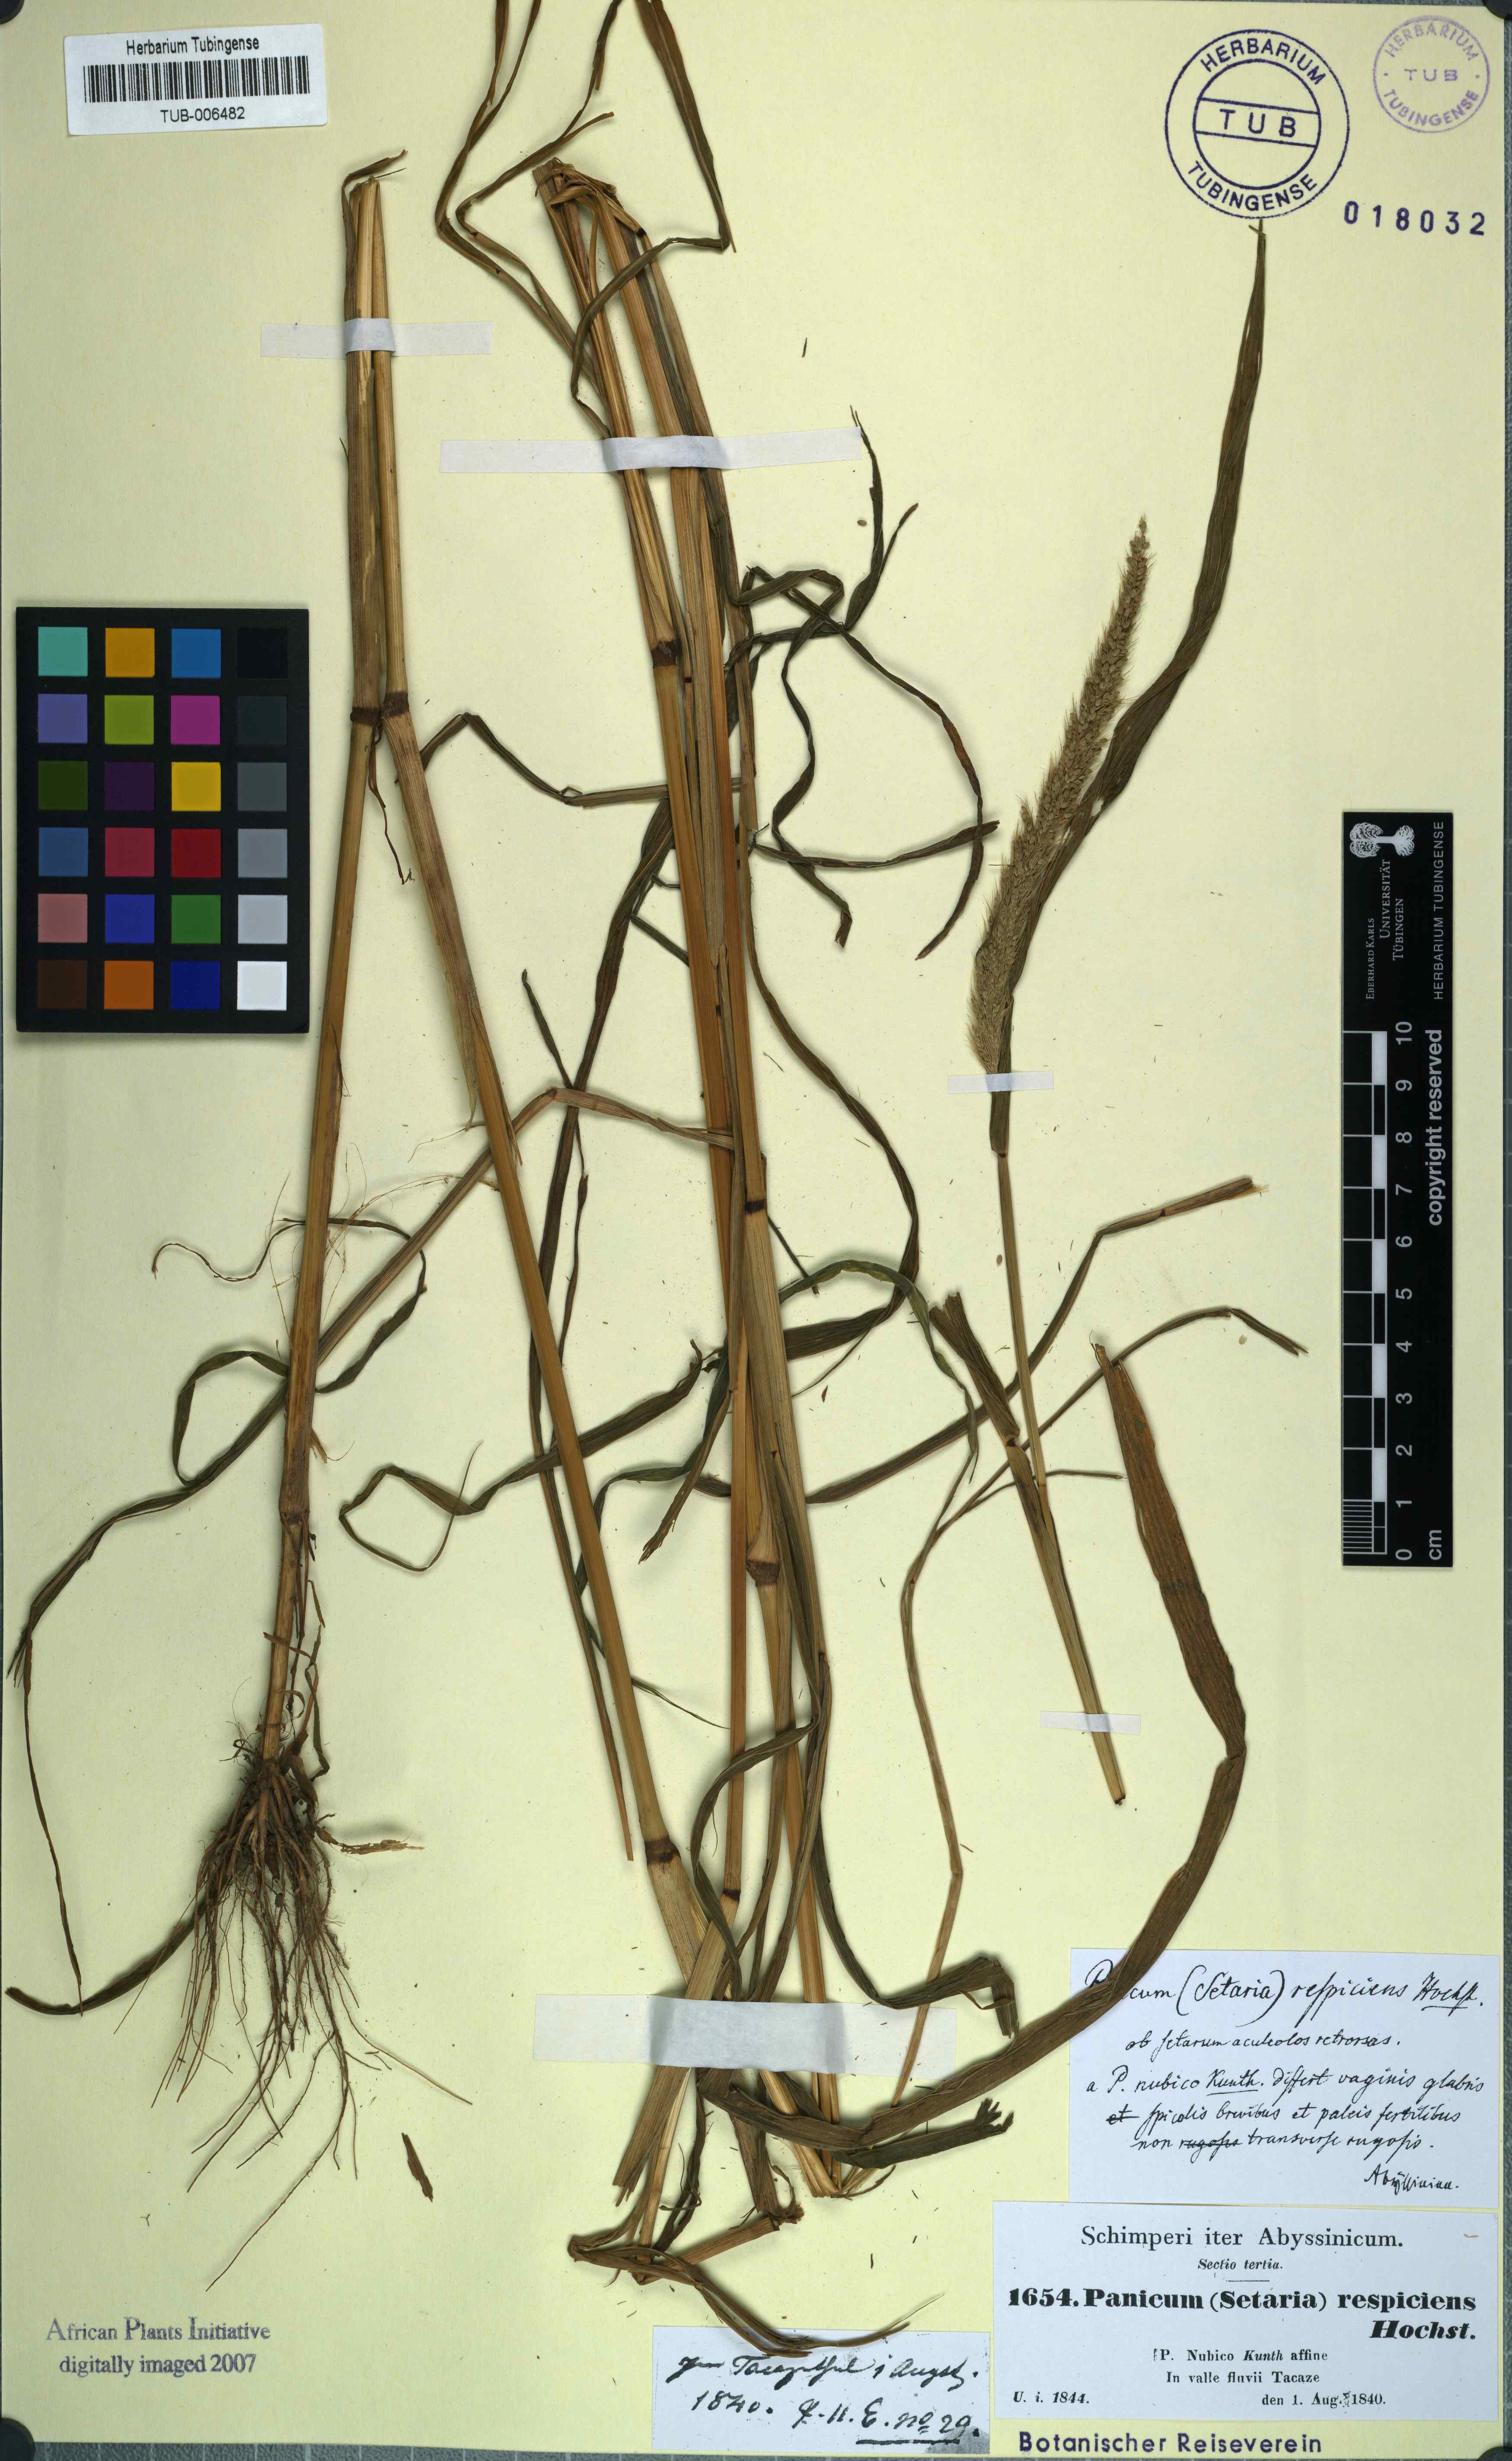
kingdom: Plantae
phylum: Tracheophyta
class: Liliopsida
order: Poales
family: Poaceae
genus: Setaria
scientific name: Setaria adhaerens
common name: Adherent bristle-grass
